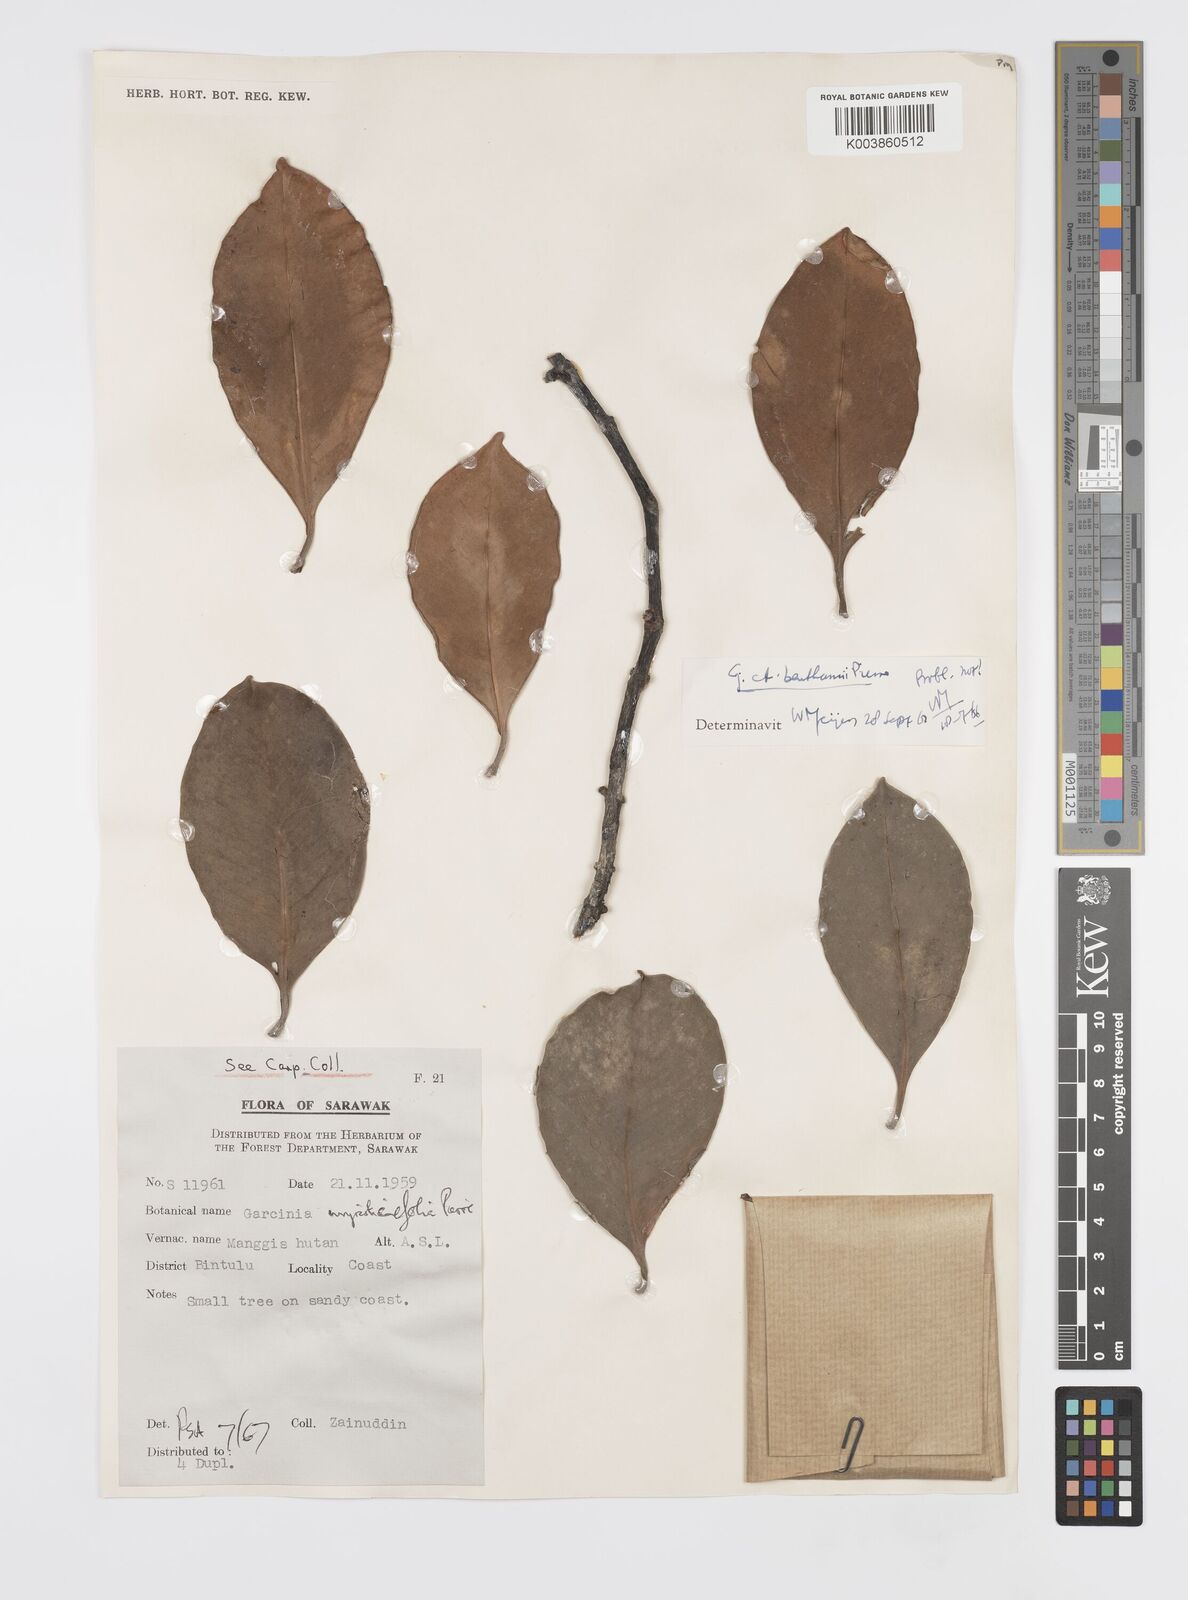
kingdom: Plantae
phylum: Tracheophyta
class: Magnoliopsida
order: Malpighiales
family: Clusiaceae
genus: Garcinia
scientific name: Garcinia myristicifolia
